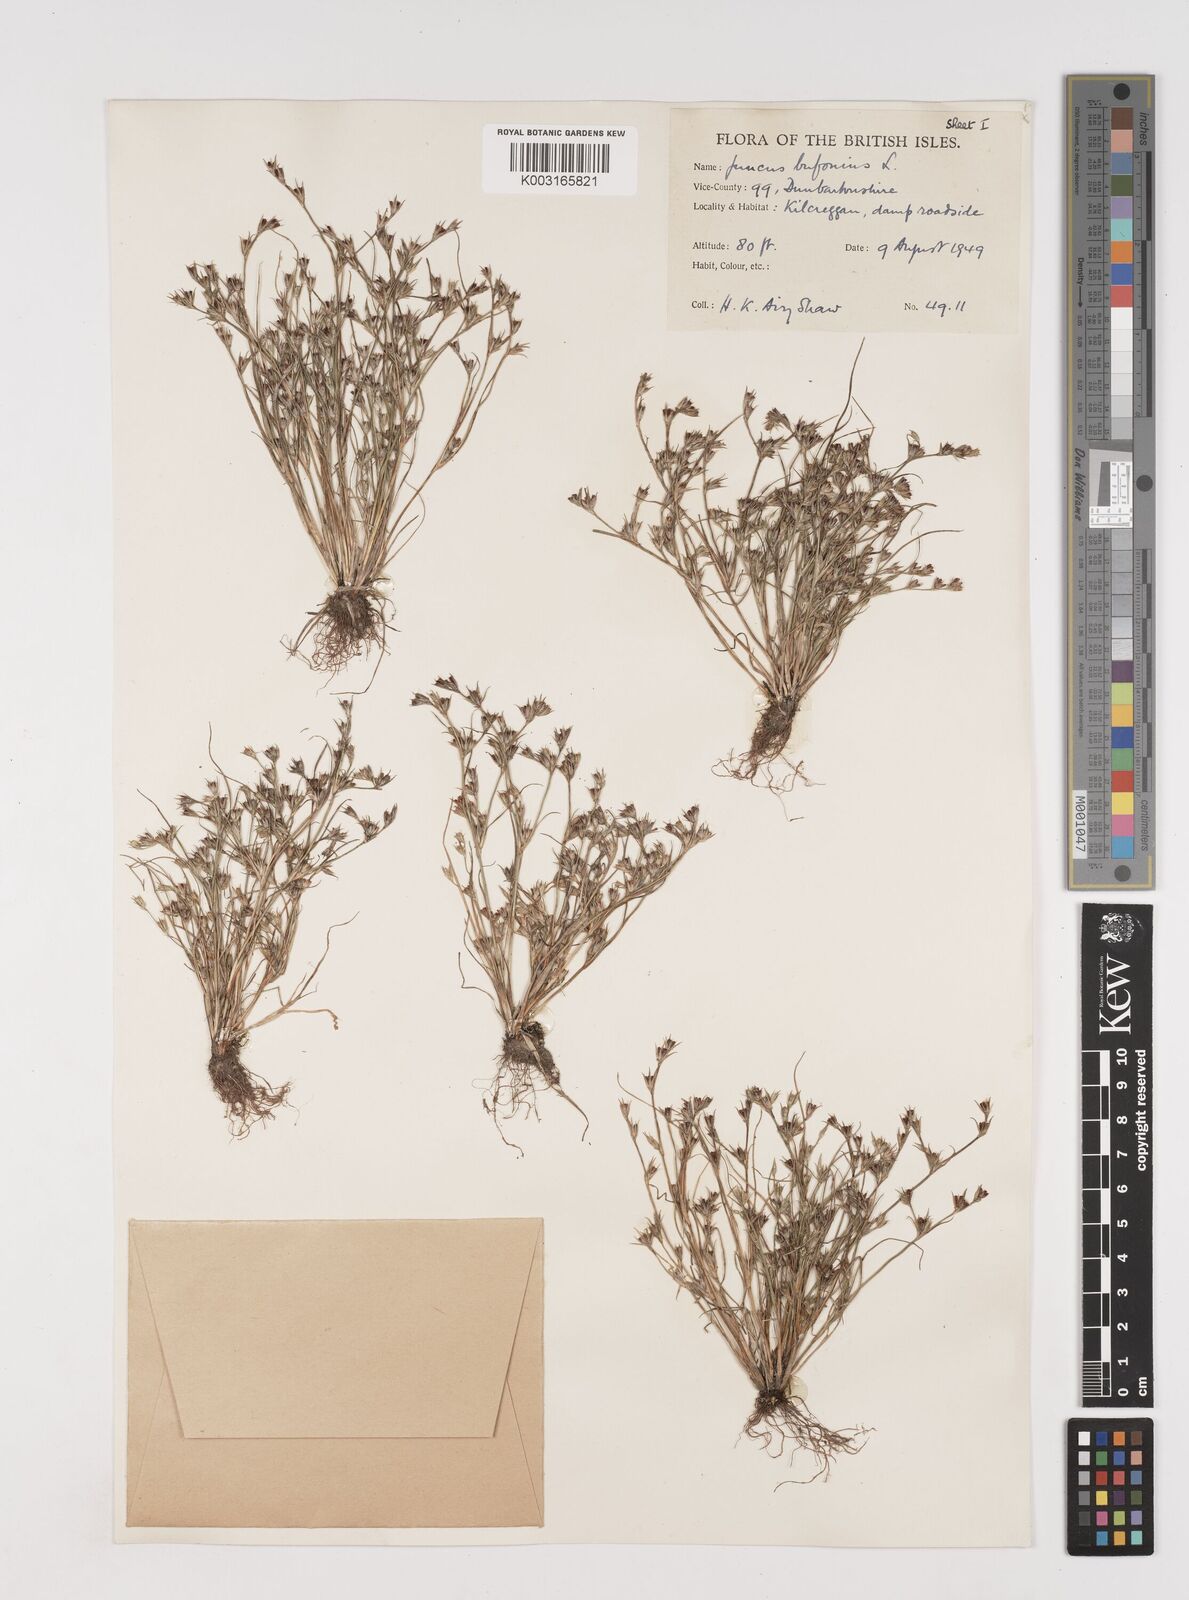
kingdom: Plantae
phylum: Tracheophyta
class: Liliopsida
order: Poales
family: Juncaceae
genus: Juncus
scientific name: Juncus bufonius
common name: Toad rush
